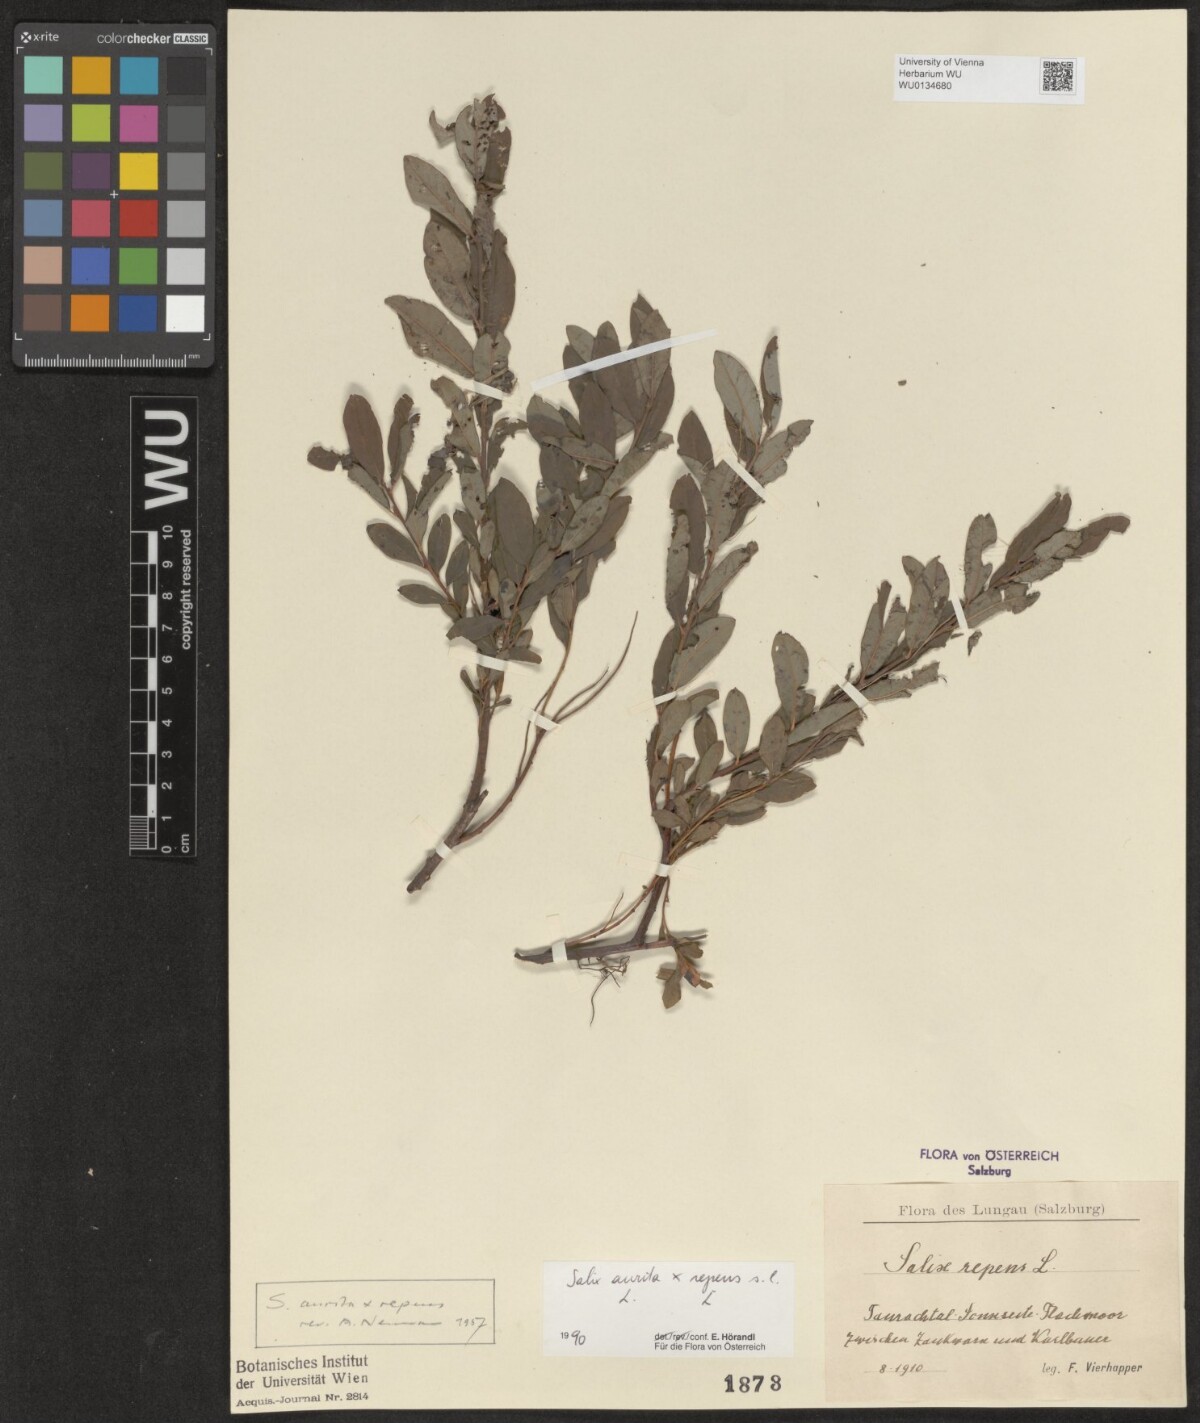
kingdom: Plantae
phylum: Tracheophyta
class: Magnoliopsida
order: Malpighiales
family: Salicaceae
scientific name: Salicaceae
